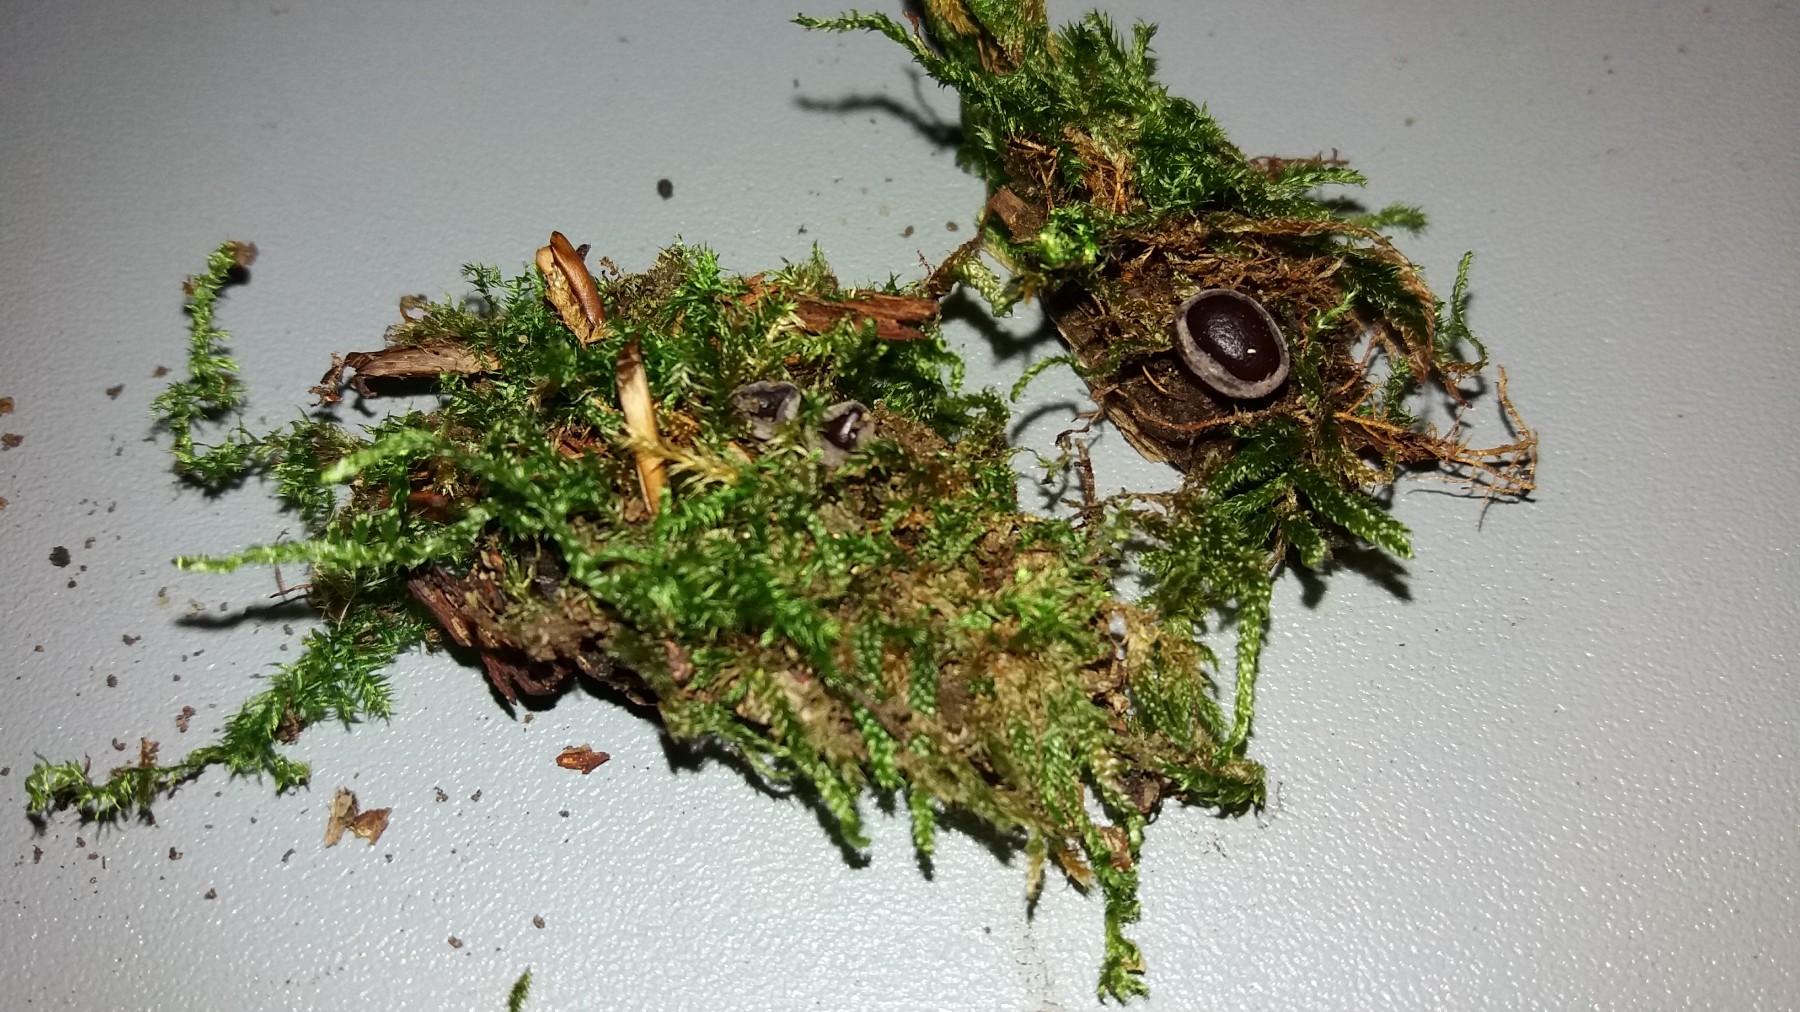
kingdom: Fungi
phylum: Ascomycota
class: Leotiomycetes
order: Helotiales
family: Gelatinodiscaceae
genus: Ascocoryne
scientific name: Ascocoryne cylichnium
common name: stor sejskive
